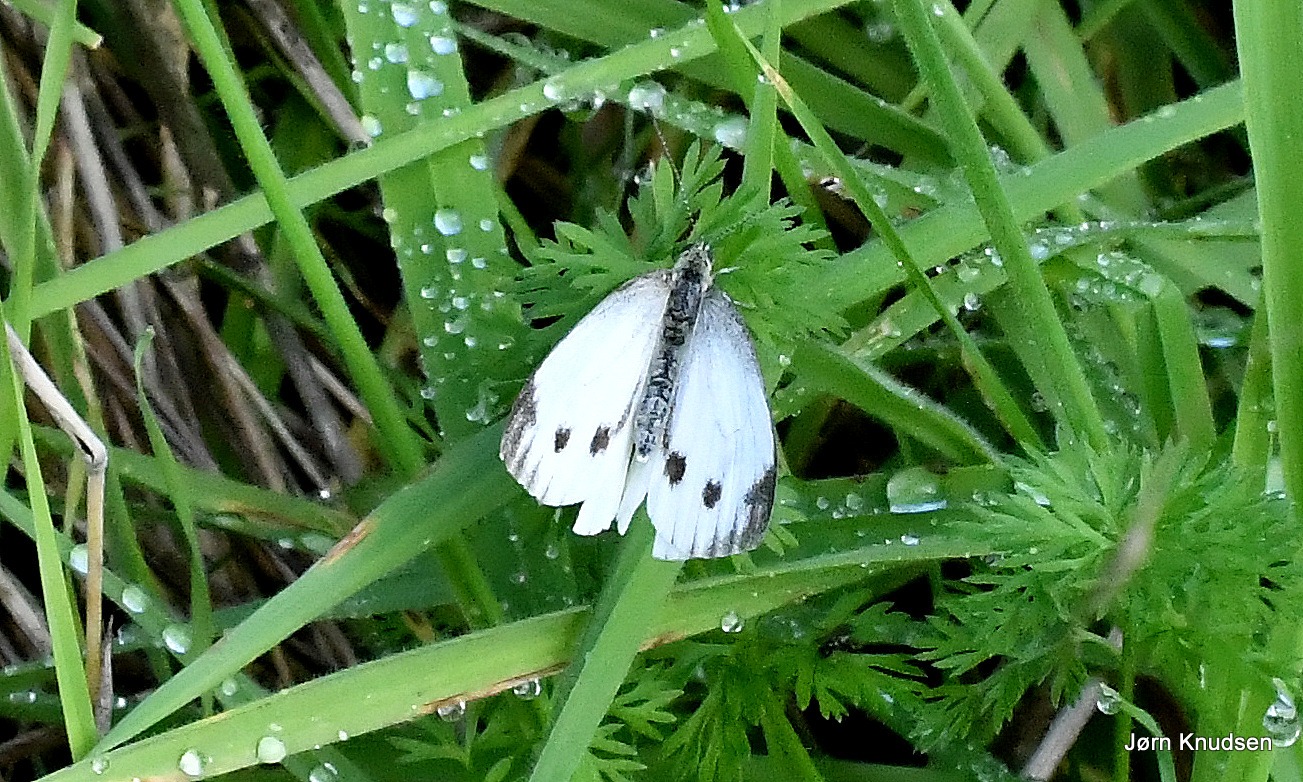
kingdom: Animalia
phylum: Arthropoda
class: Insecta
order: Lepidoptera
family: Pieridae
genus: Pieris
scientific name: Pieris napi
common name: Grønåret kålsommerfugl
